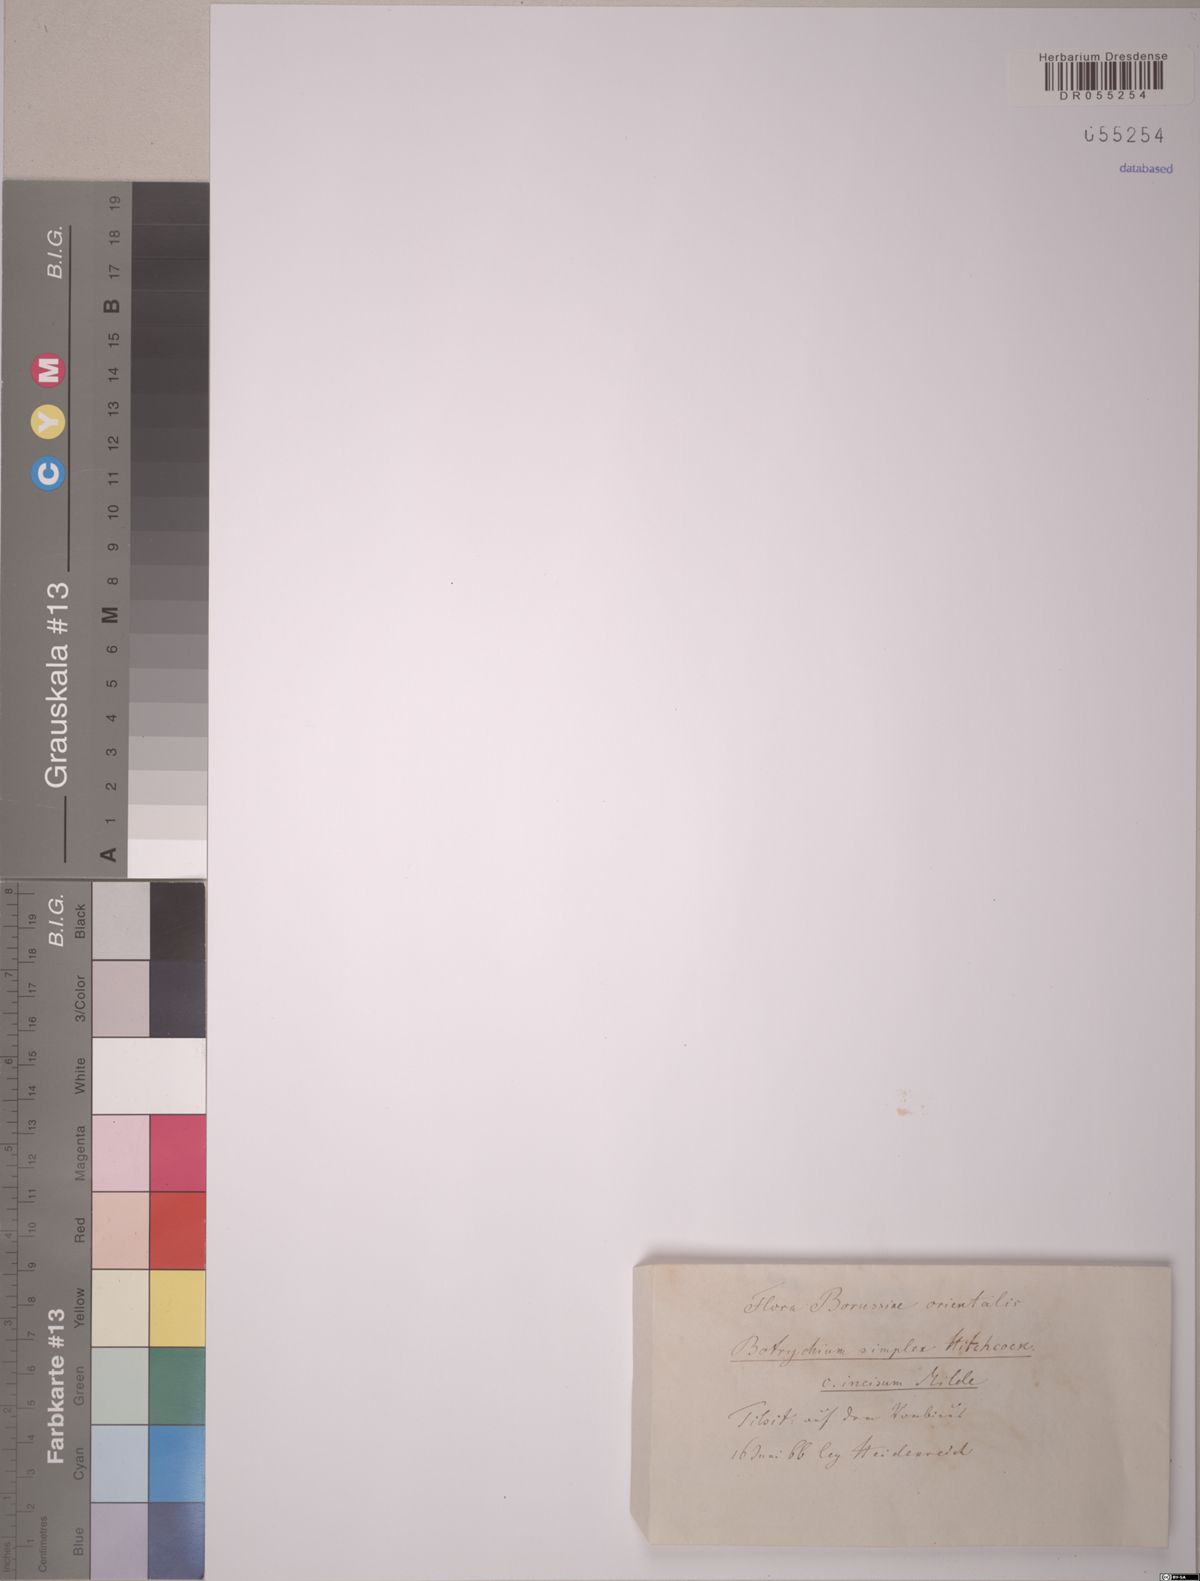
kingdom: Plantae
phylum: Tracheophyta
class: Polypodiopsida
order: Ophioglossales
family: Ophioglossaceae
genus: Botrychium
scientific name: Botrychium simplex
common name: Least moonwort
